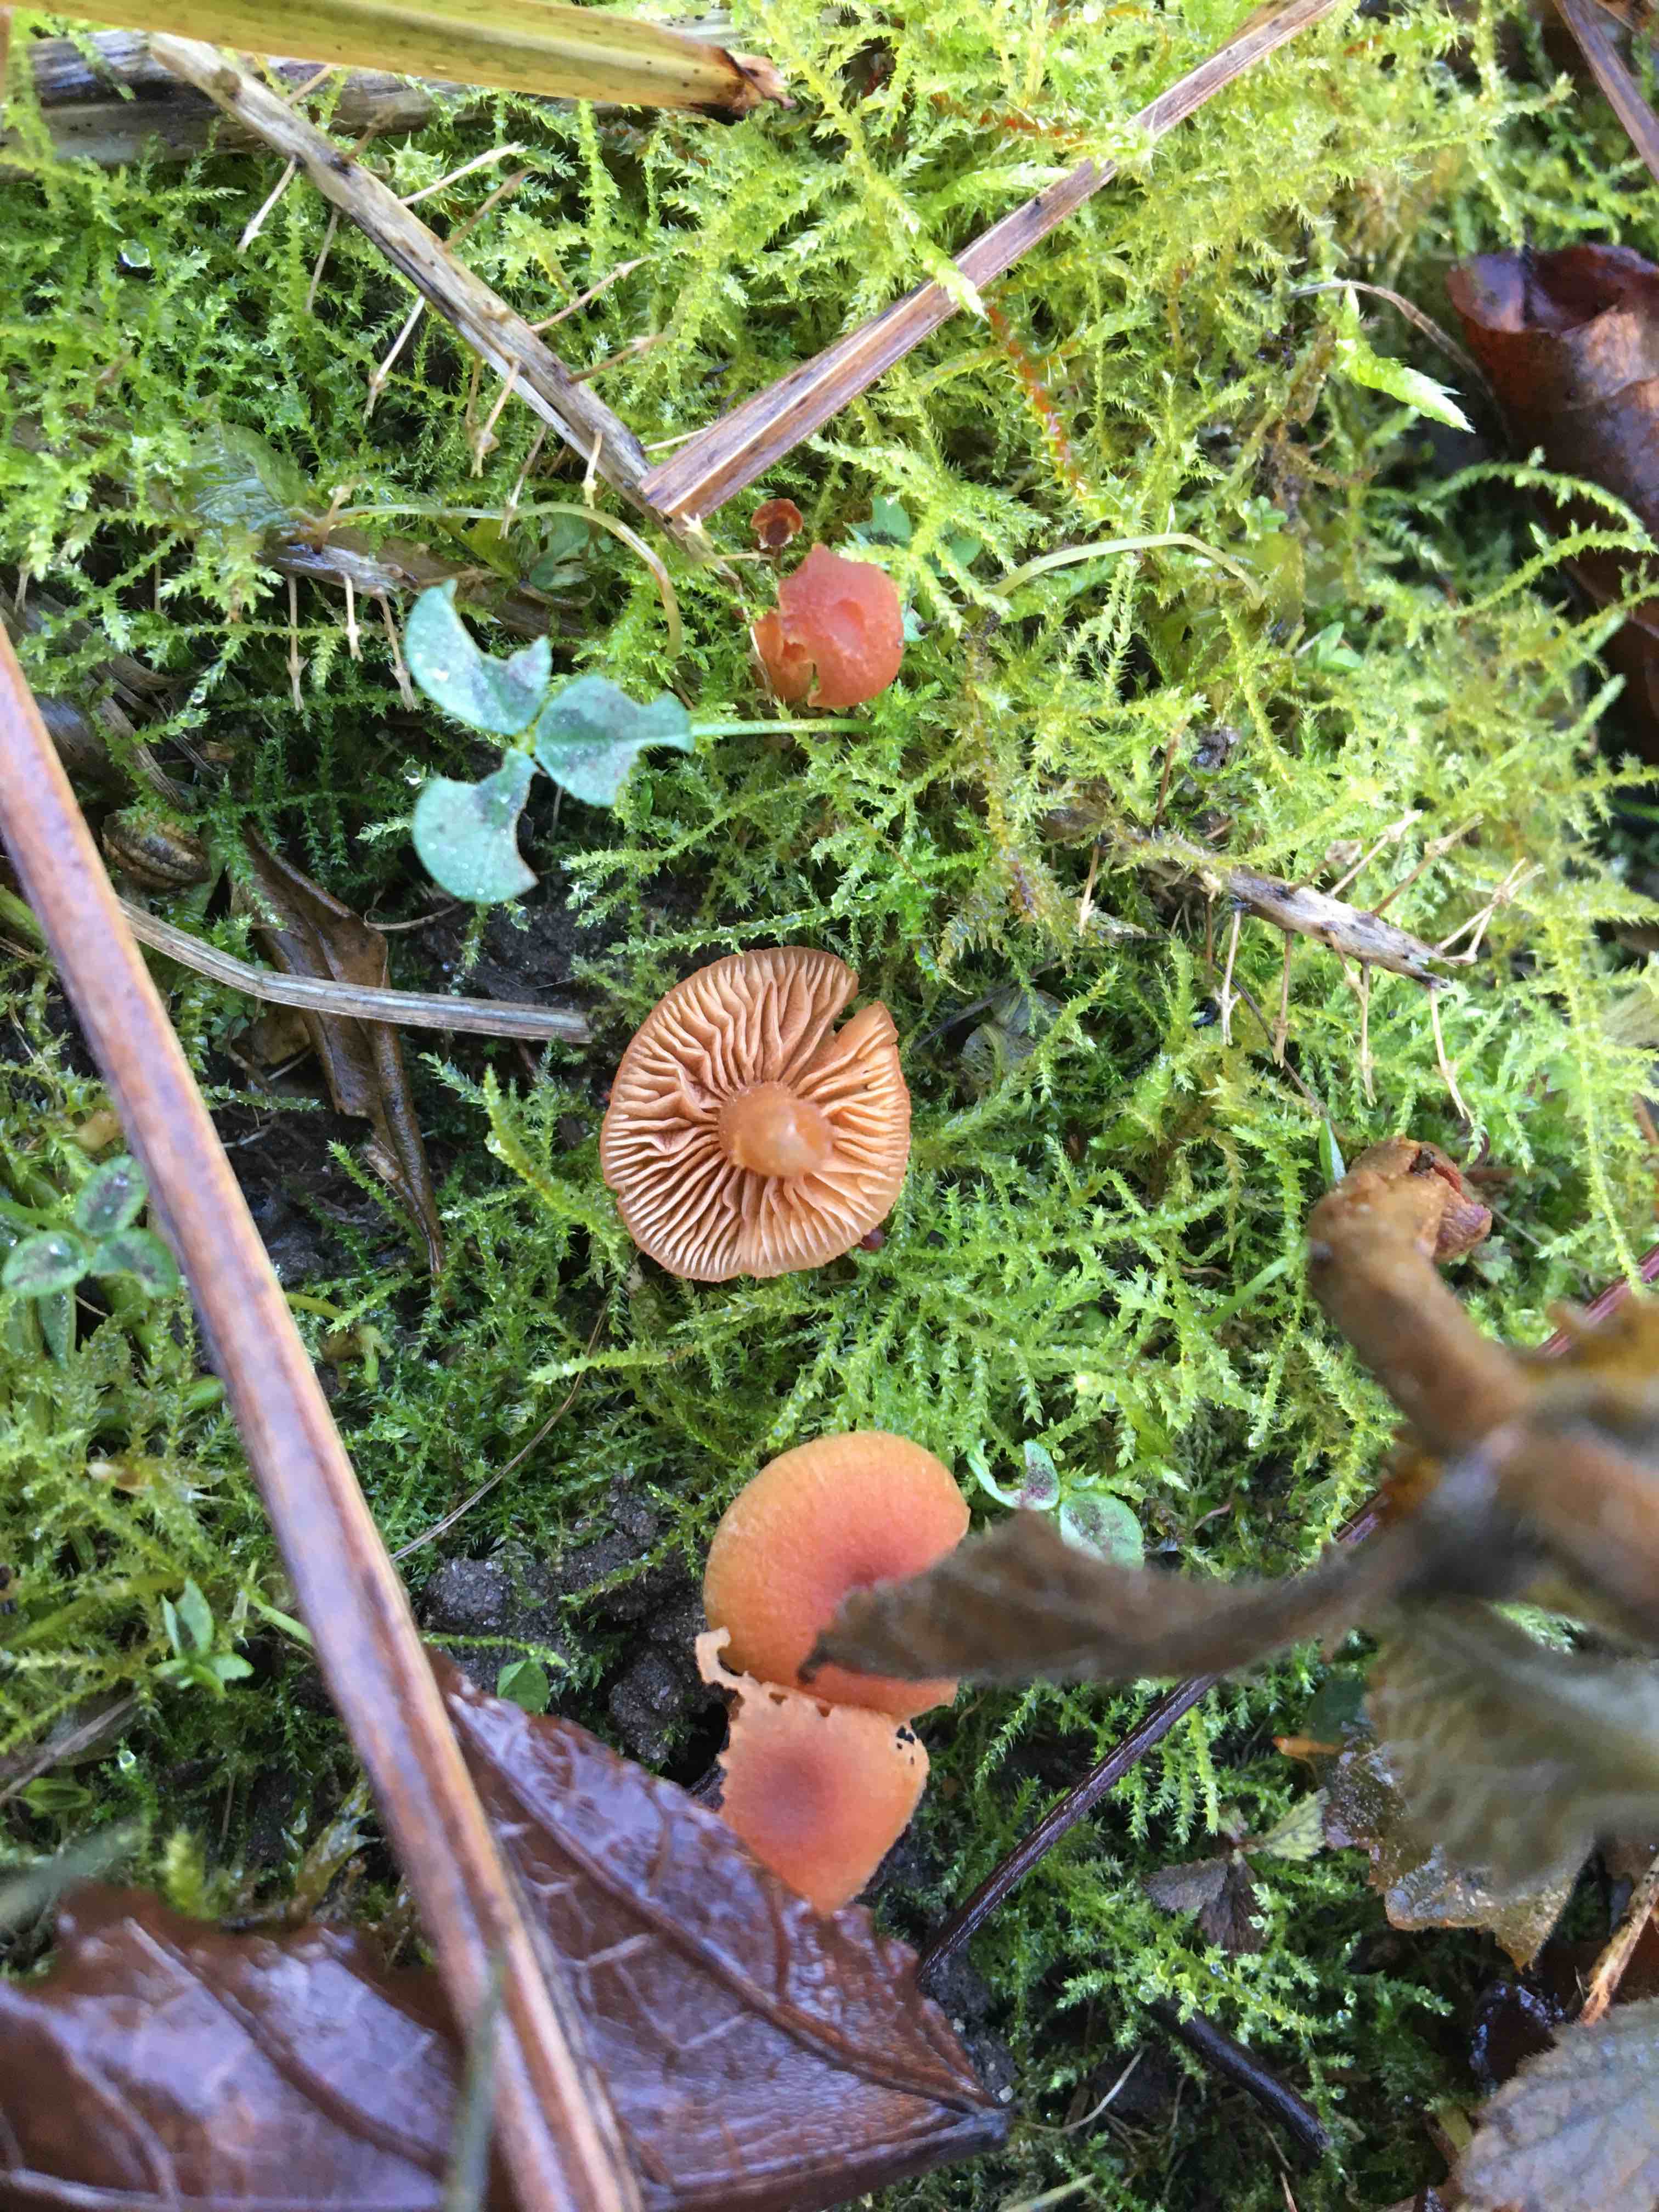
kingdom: Fungi
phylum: Basidiomycota
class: Agaricomycetes
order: Agaricales
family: Tubariaceae
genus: Tubaria
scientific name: Tubaria furfuracea
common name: kliddet fnughat
